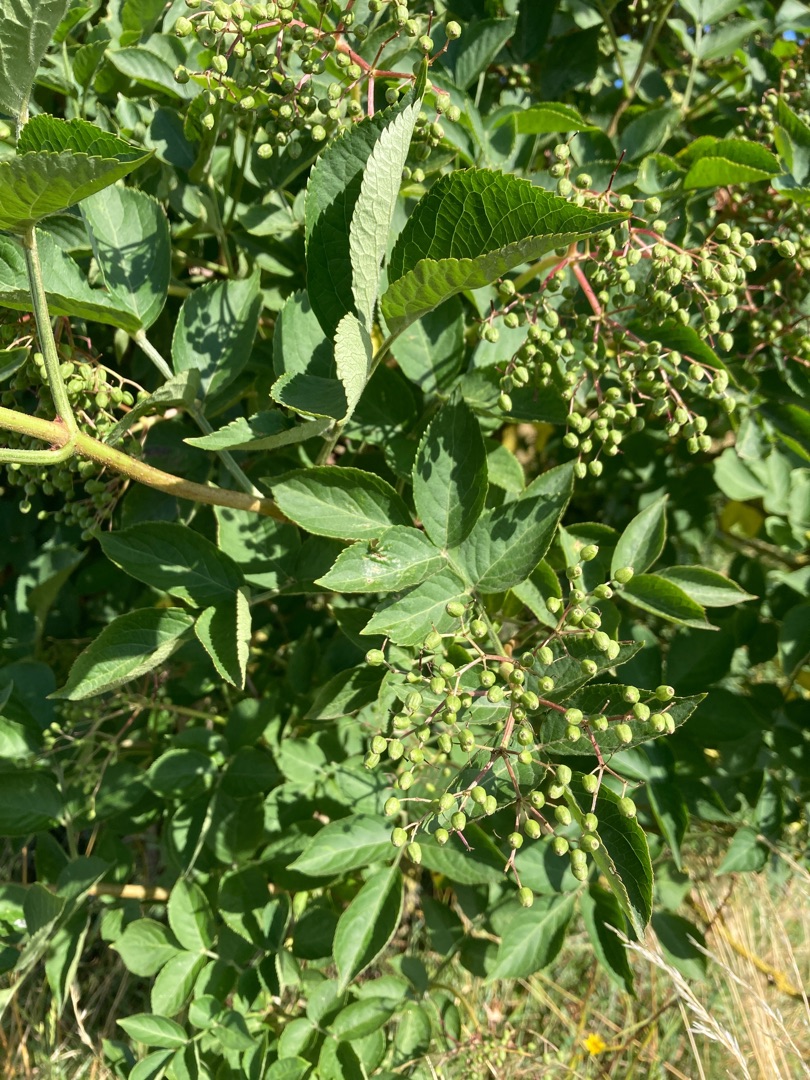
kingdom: Plantae
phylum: Tracheophyta
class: Magnoliopsida
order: Dipsacales
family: Viburnaceae
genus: Sambucus
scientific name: Sambucus nigra
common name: Almindelig hyld
